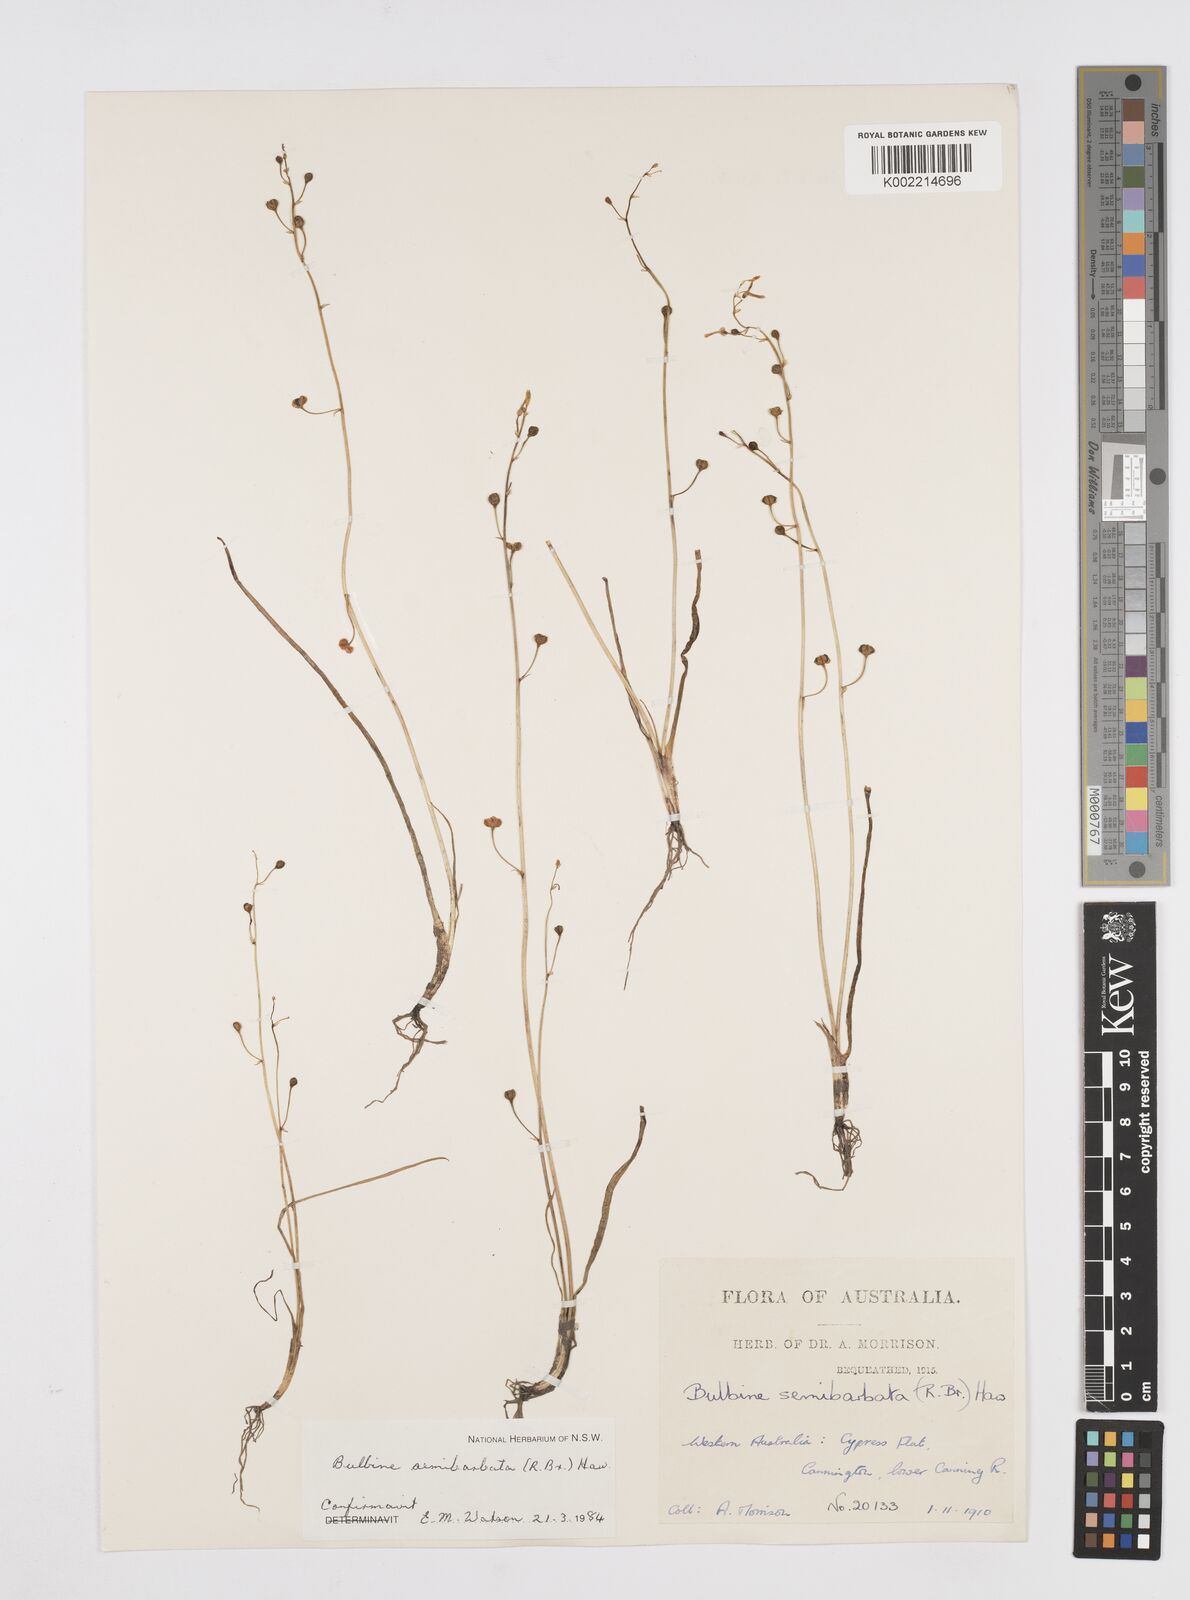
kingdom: Plantae
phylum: Tracheophyta
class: Liliopsida
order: Asparagales
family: Asphodelaceae
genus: Bulbine
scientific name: Bulbine semibarbata
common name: Leek lily
